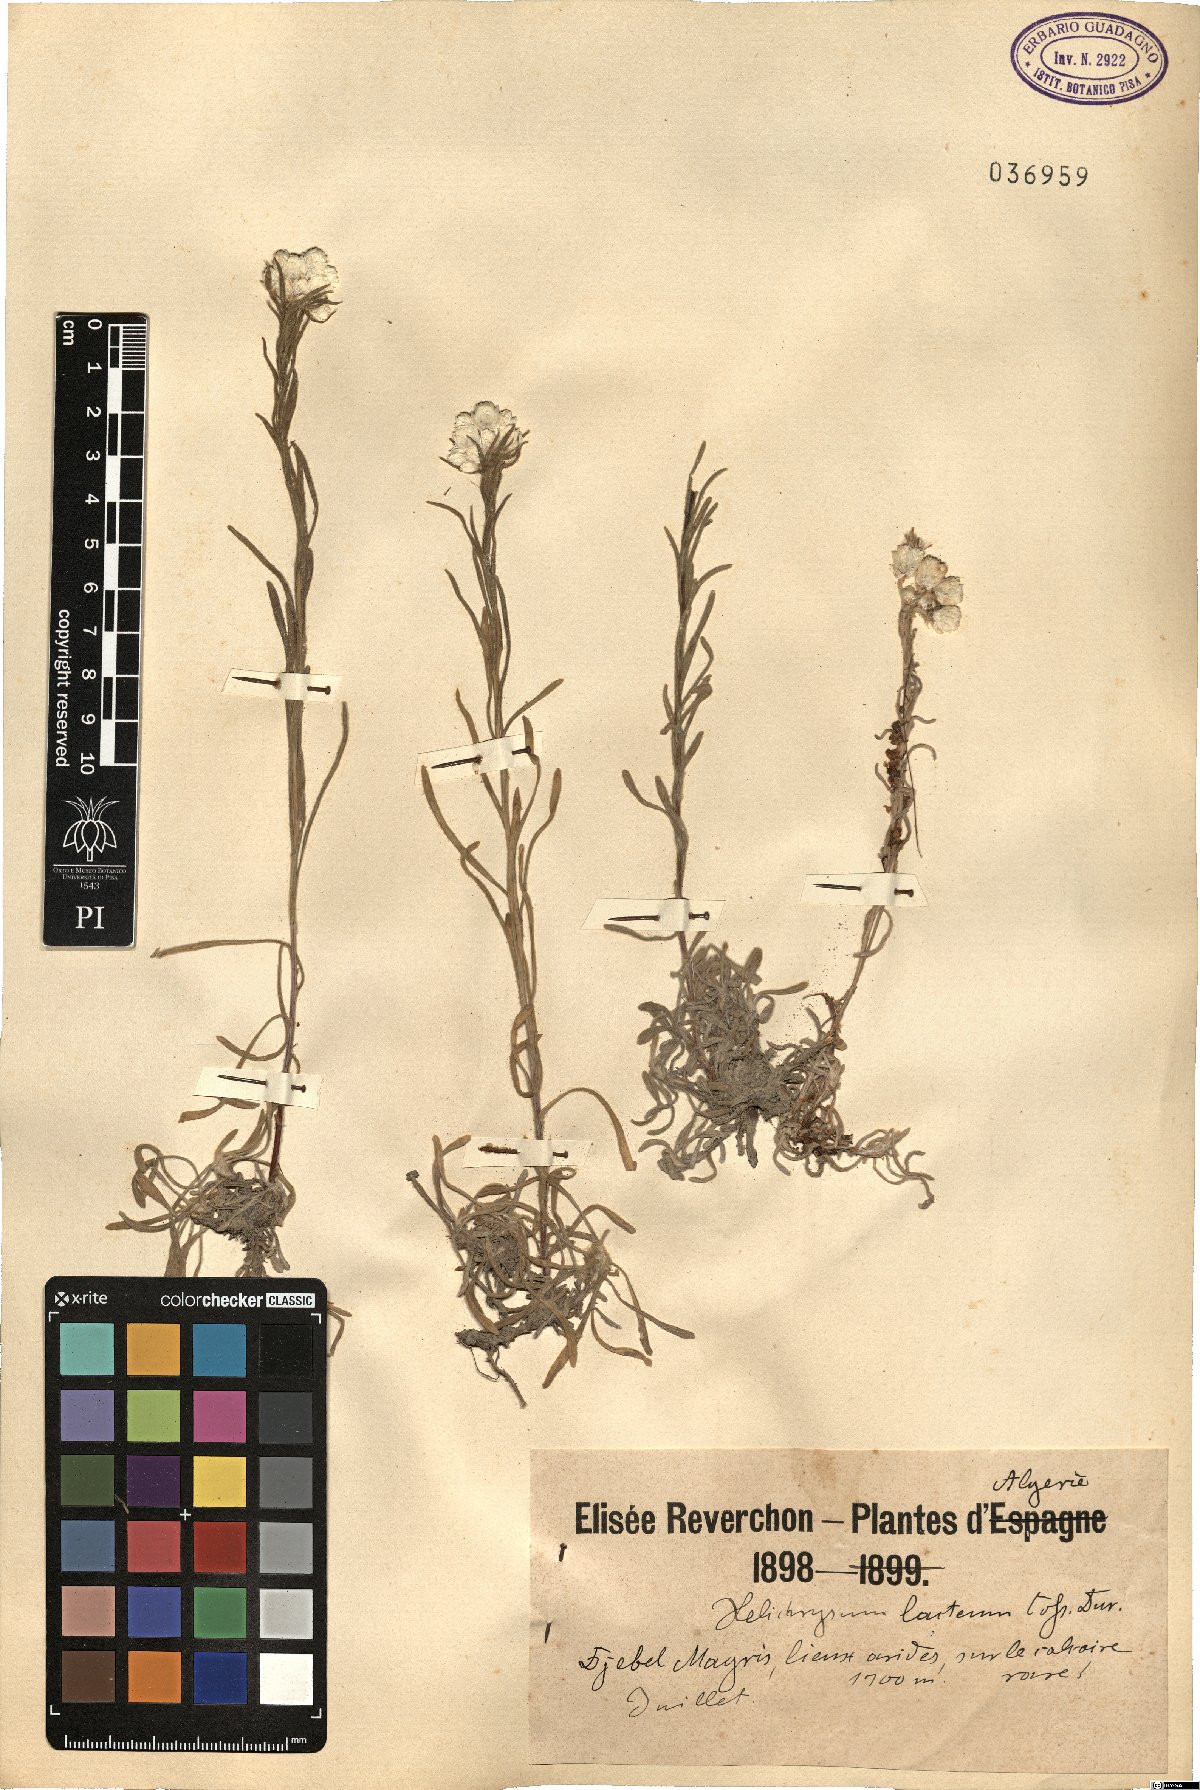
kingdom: Plantae
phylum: Tracheophyta
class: Magnoliopsida
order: Asterales
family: Asteraceae
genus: Helichrysum
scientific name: Helichrysum lacteum
